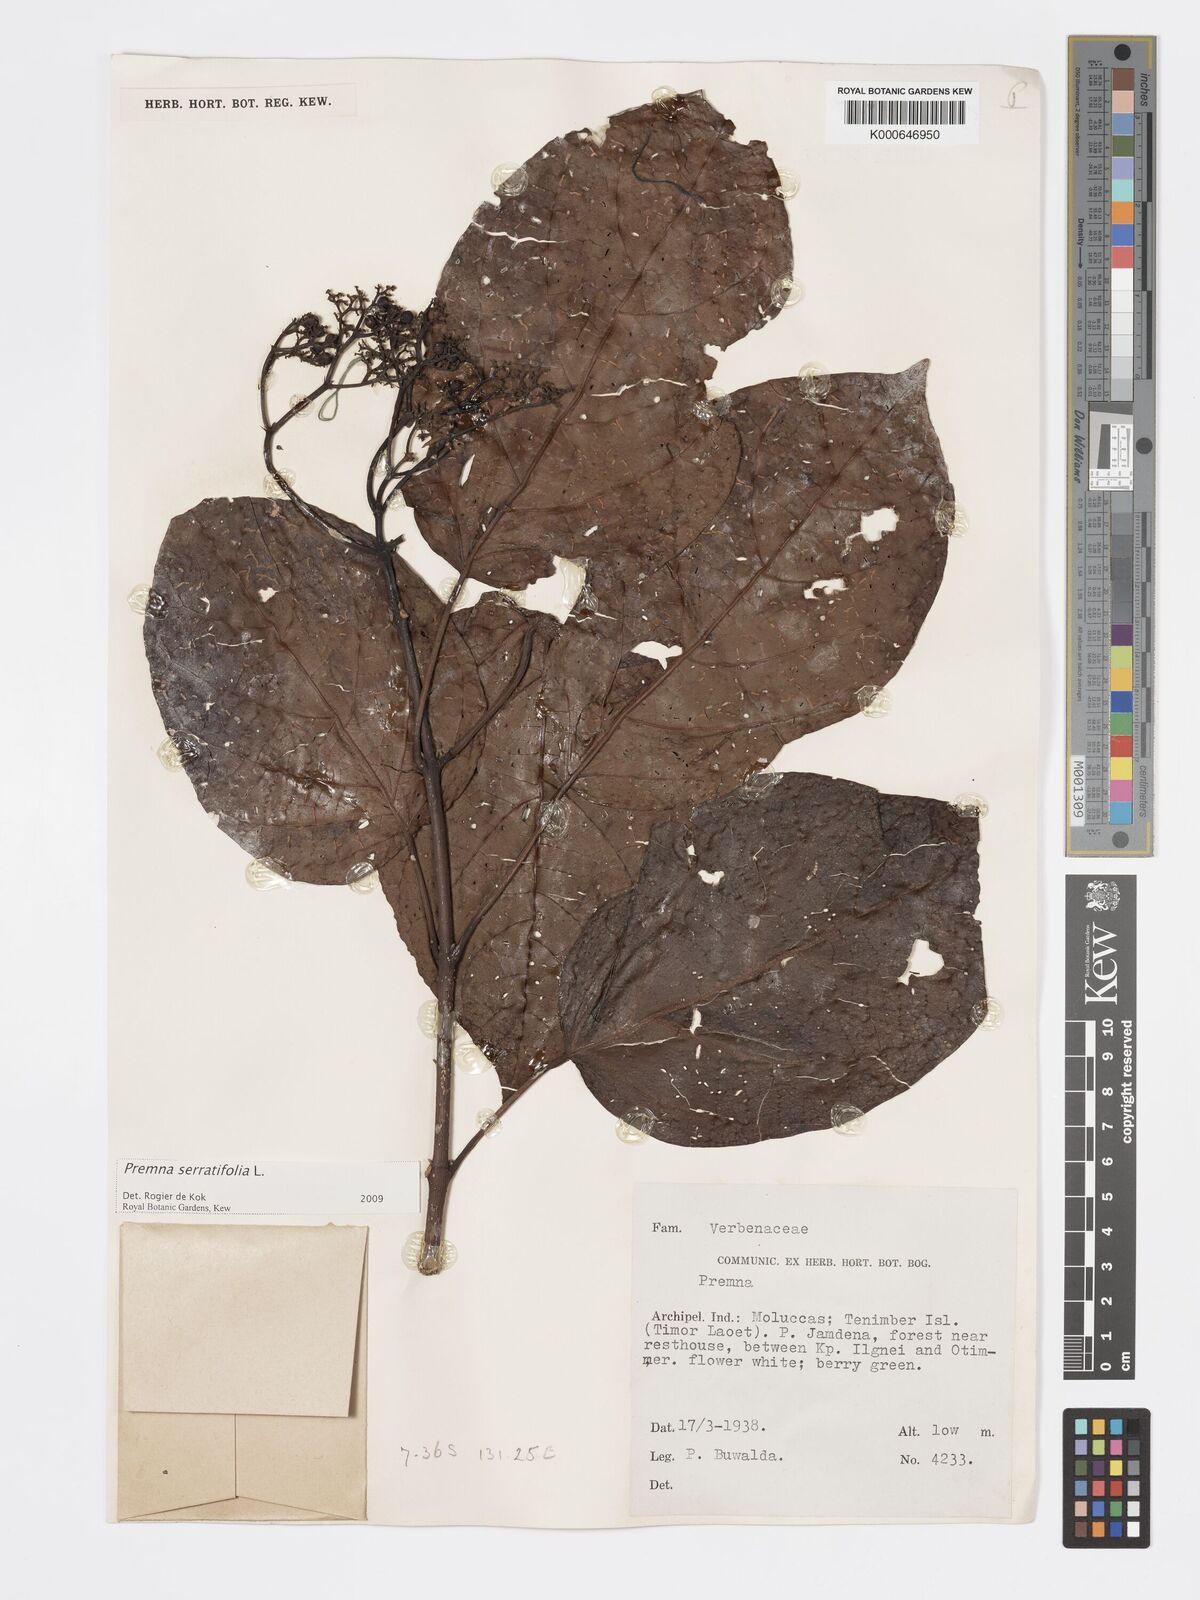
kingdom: Plantae
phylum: Tracheophyta
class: Magnoliopsida
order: Lamiales
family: Lamiaceae
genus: Premna
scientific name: Premna serratifolia
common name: Bastard guelder
